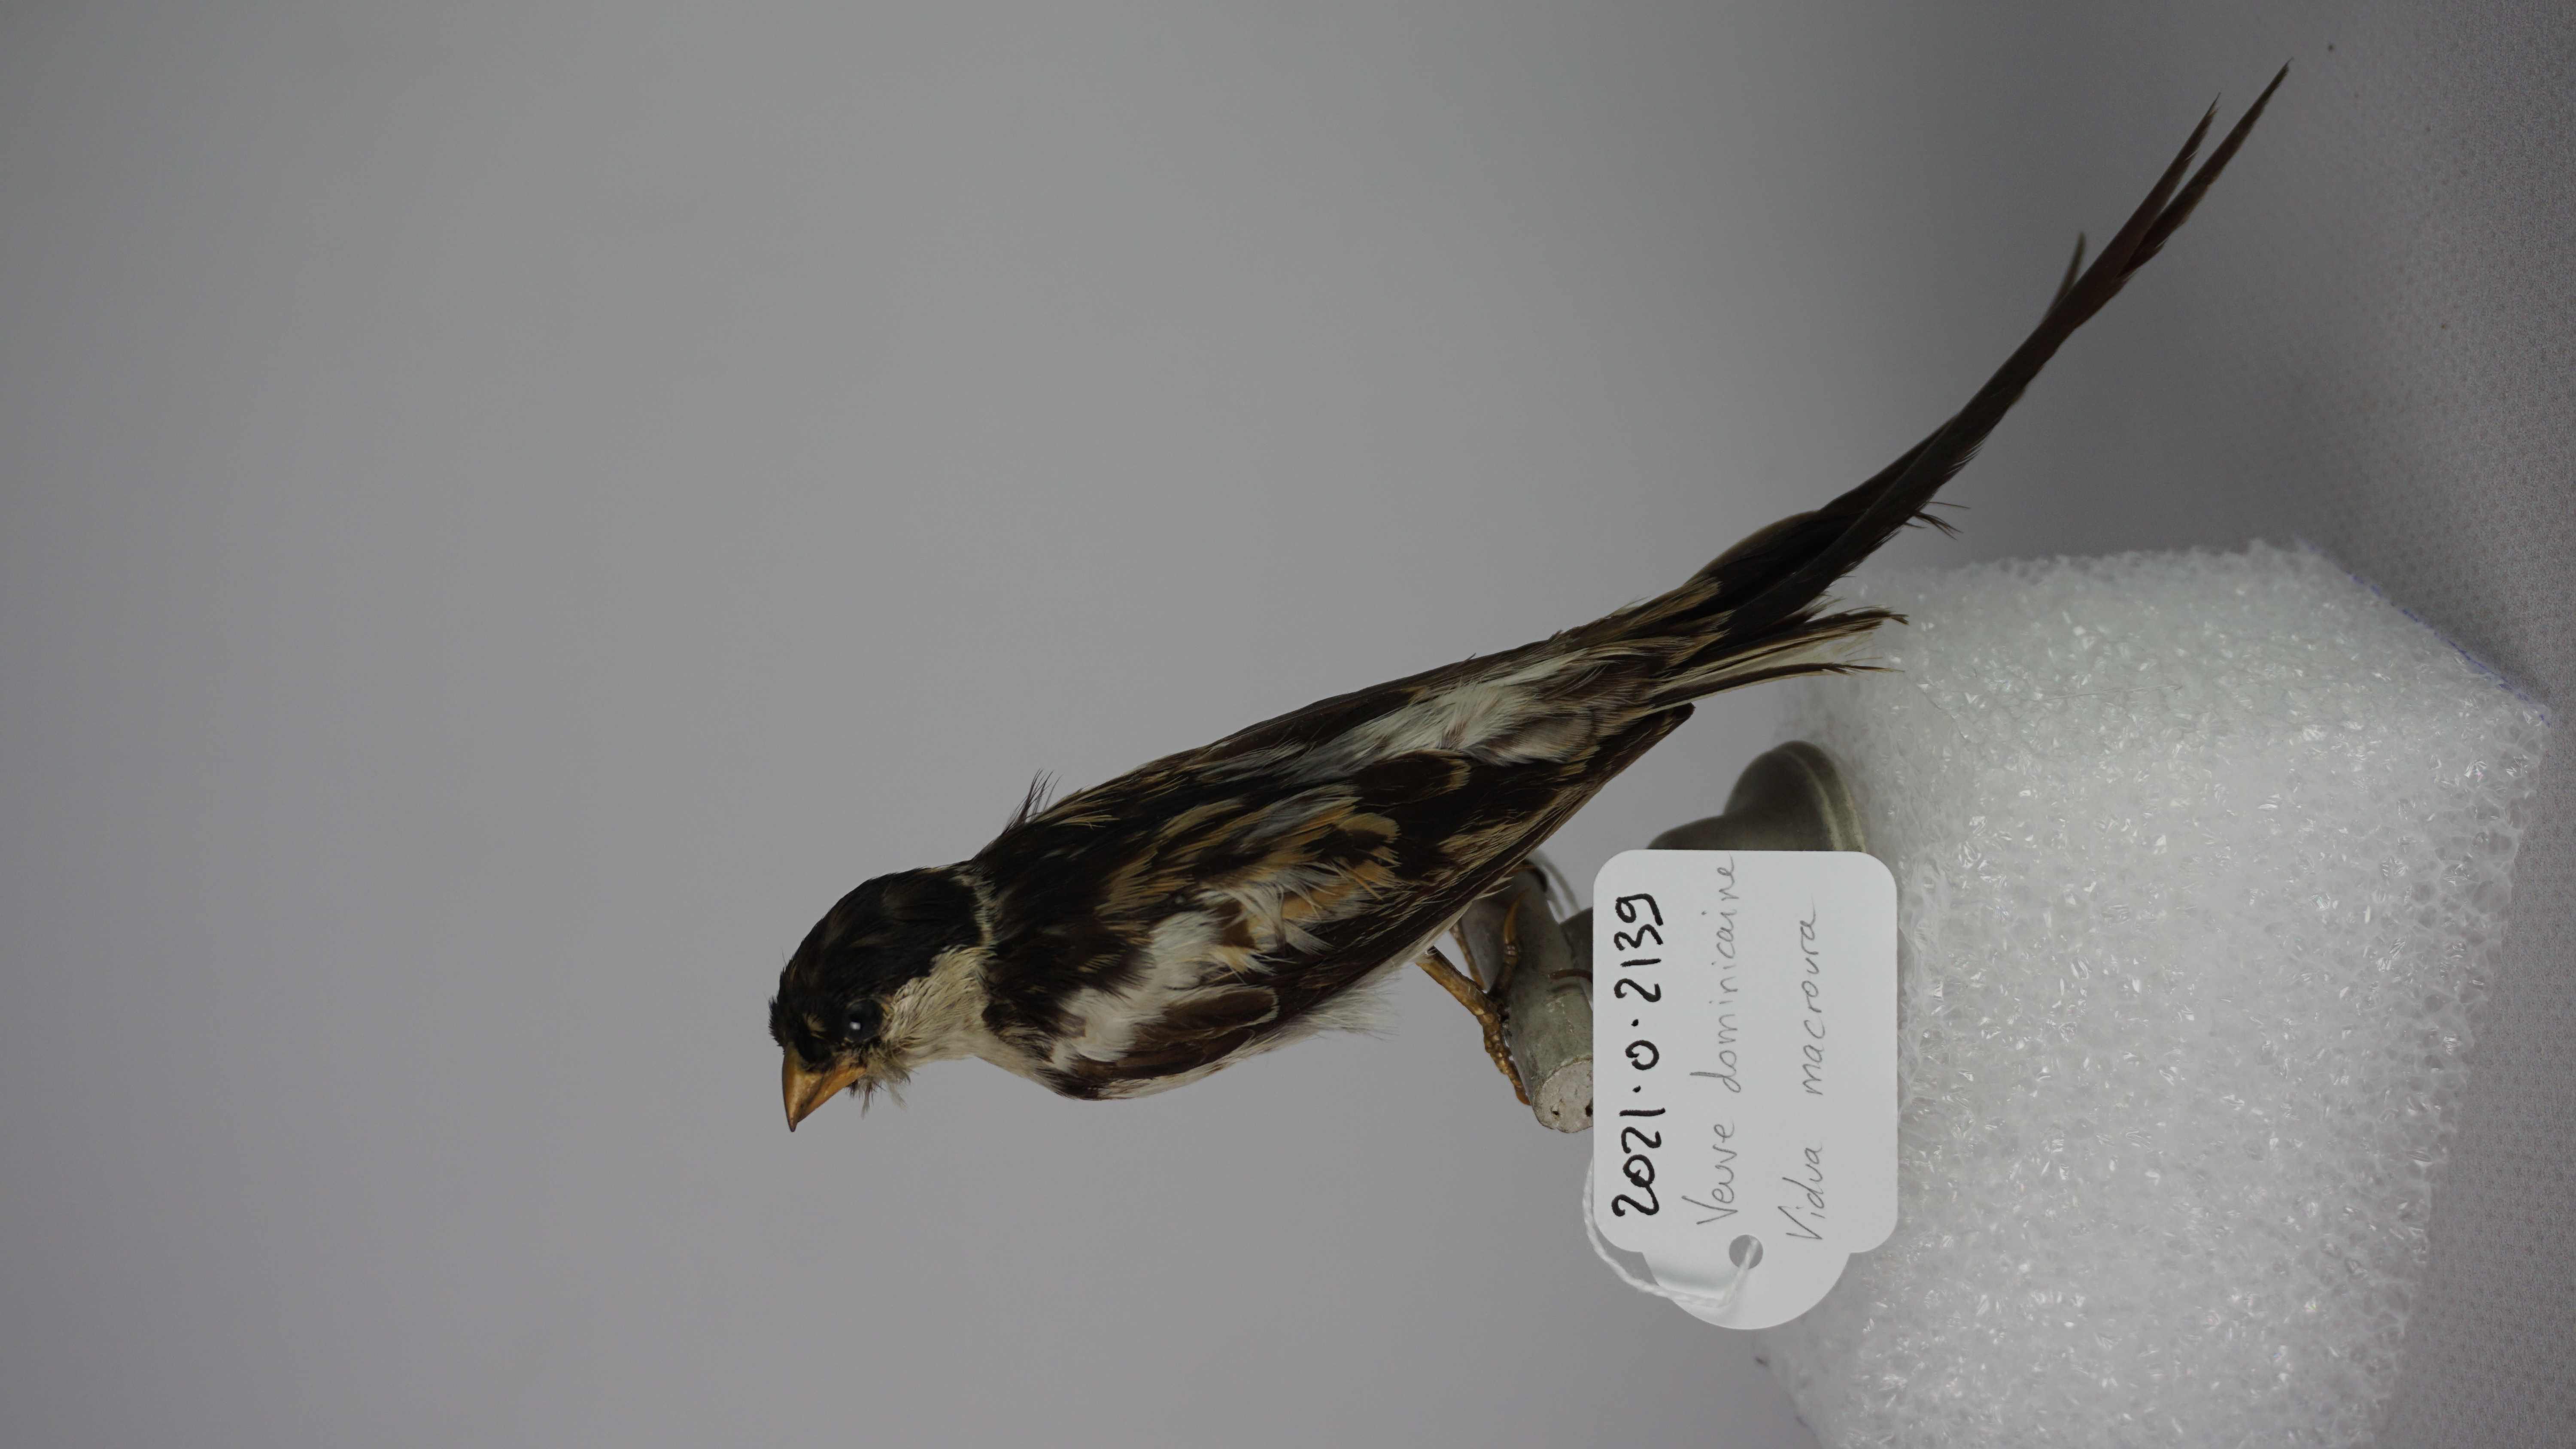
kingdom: Animalia
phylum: Chordata
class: Aves
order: Passeriformes
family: Viduidae
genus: Vidua
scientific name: Vidua macroura
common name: Pin-tailed whydah
